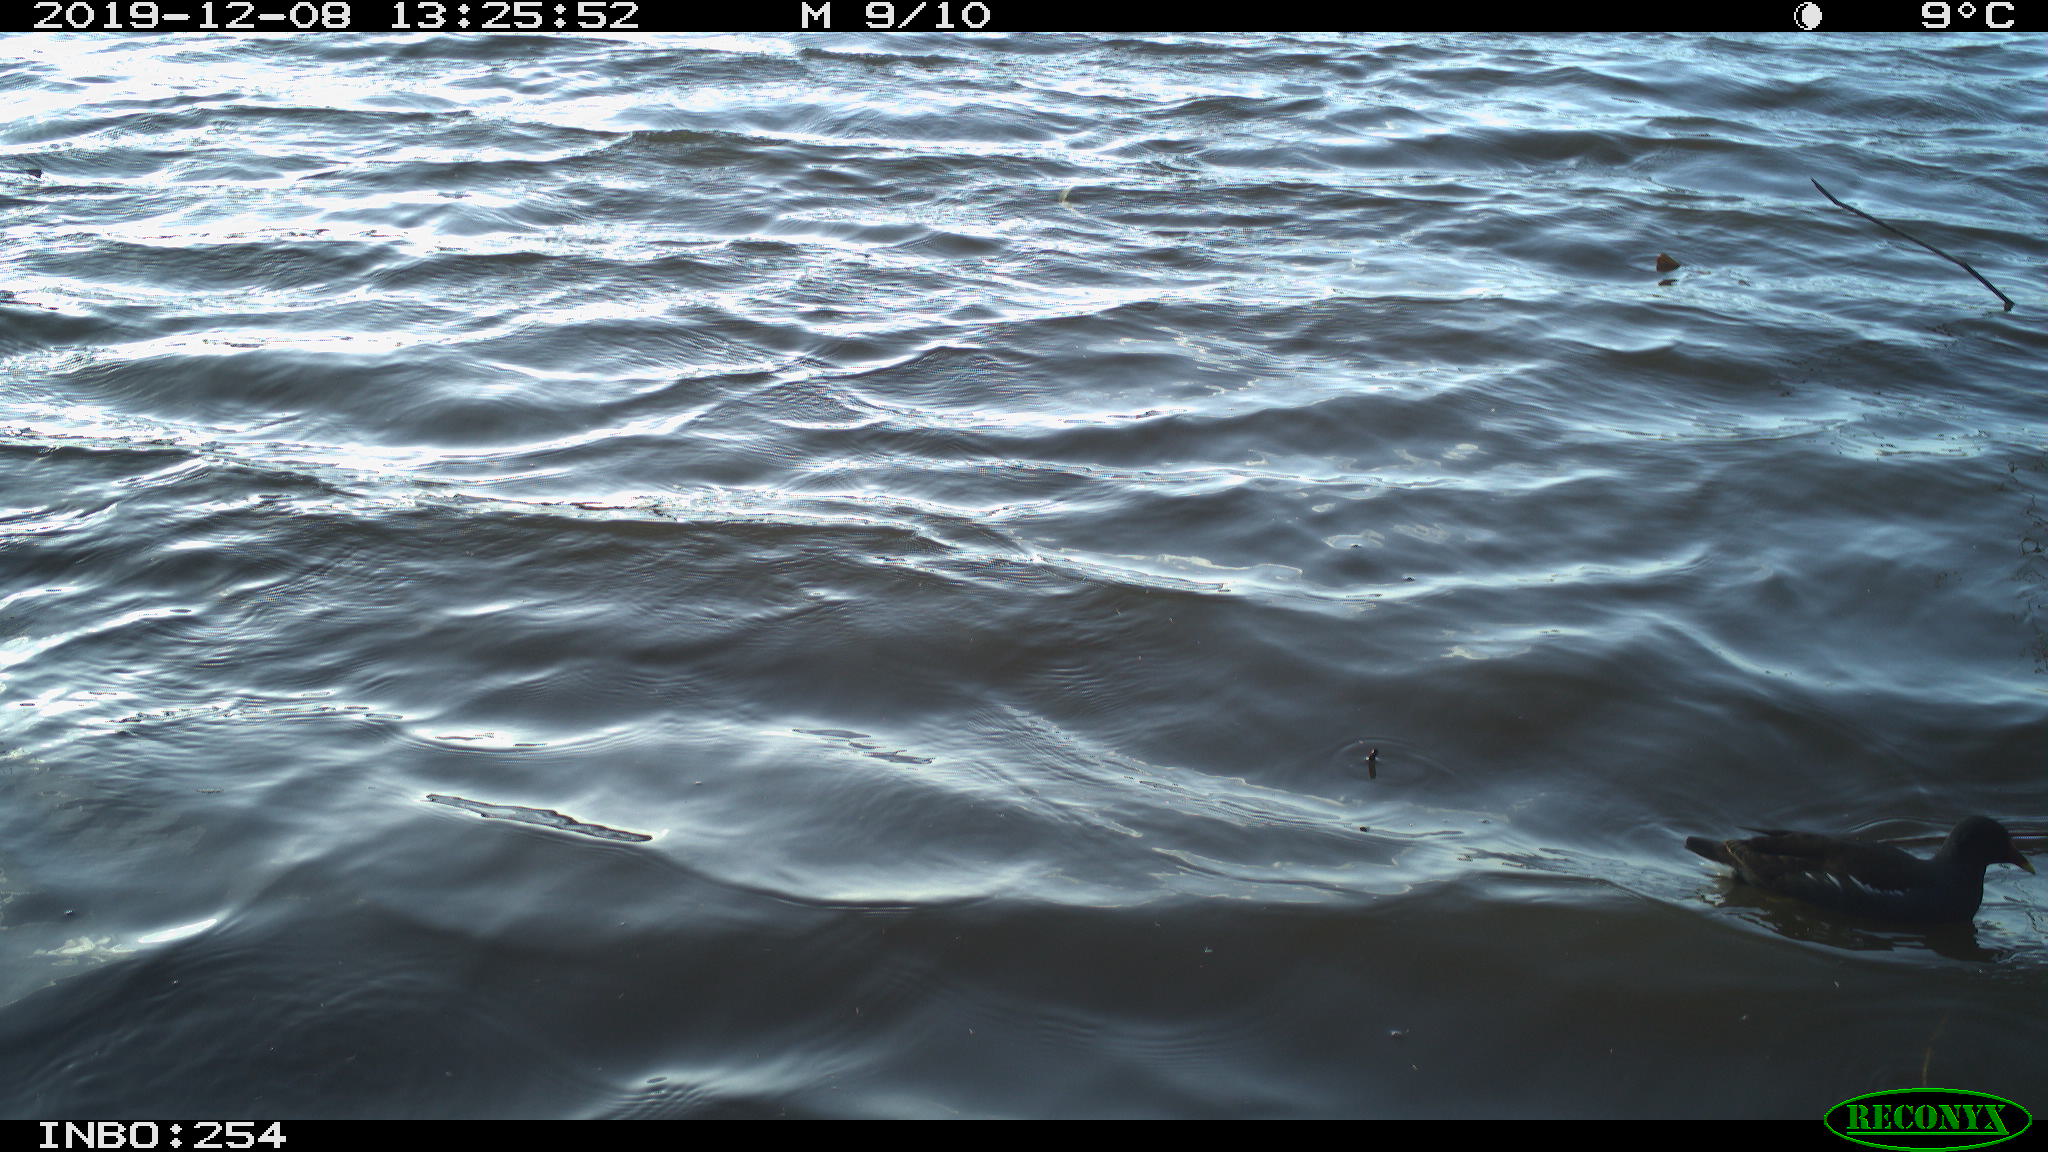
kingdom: Animalia
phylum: Chordata
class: Aves
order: Gruiformes
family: Rallidae
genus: Gallinula
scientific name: Gallinula chloropus
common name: Common moorhen
